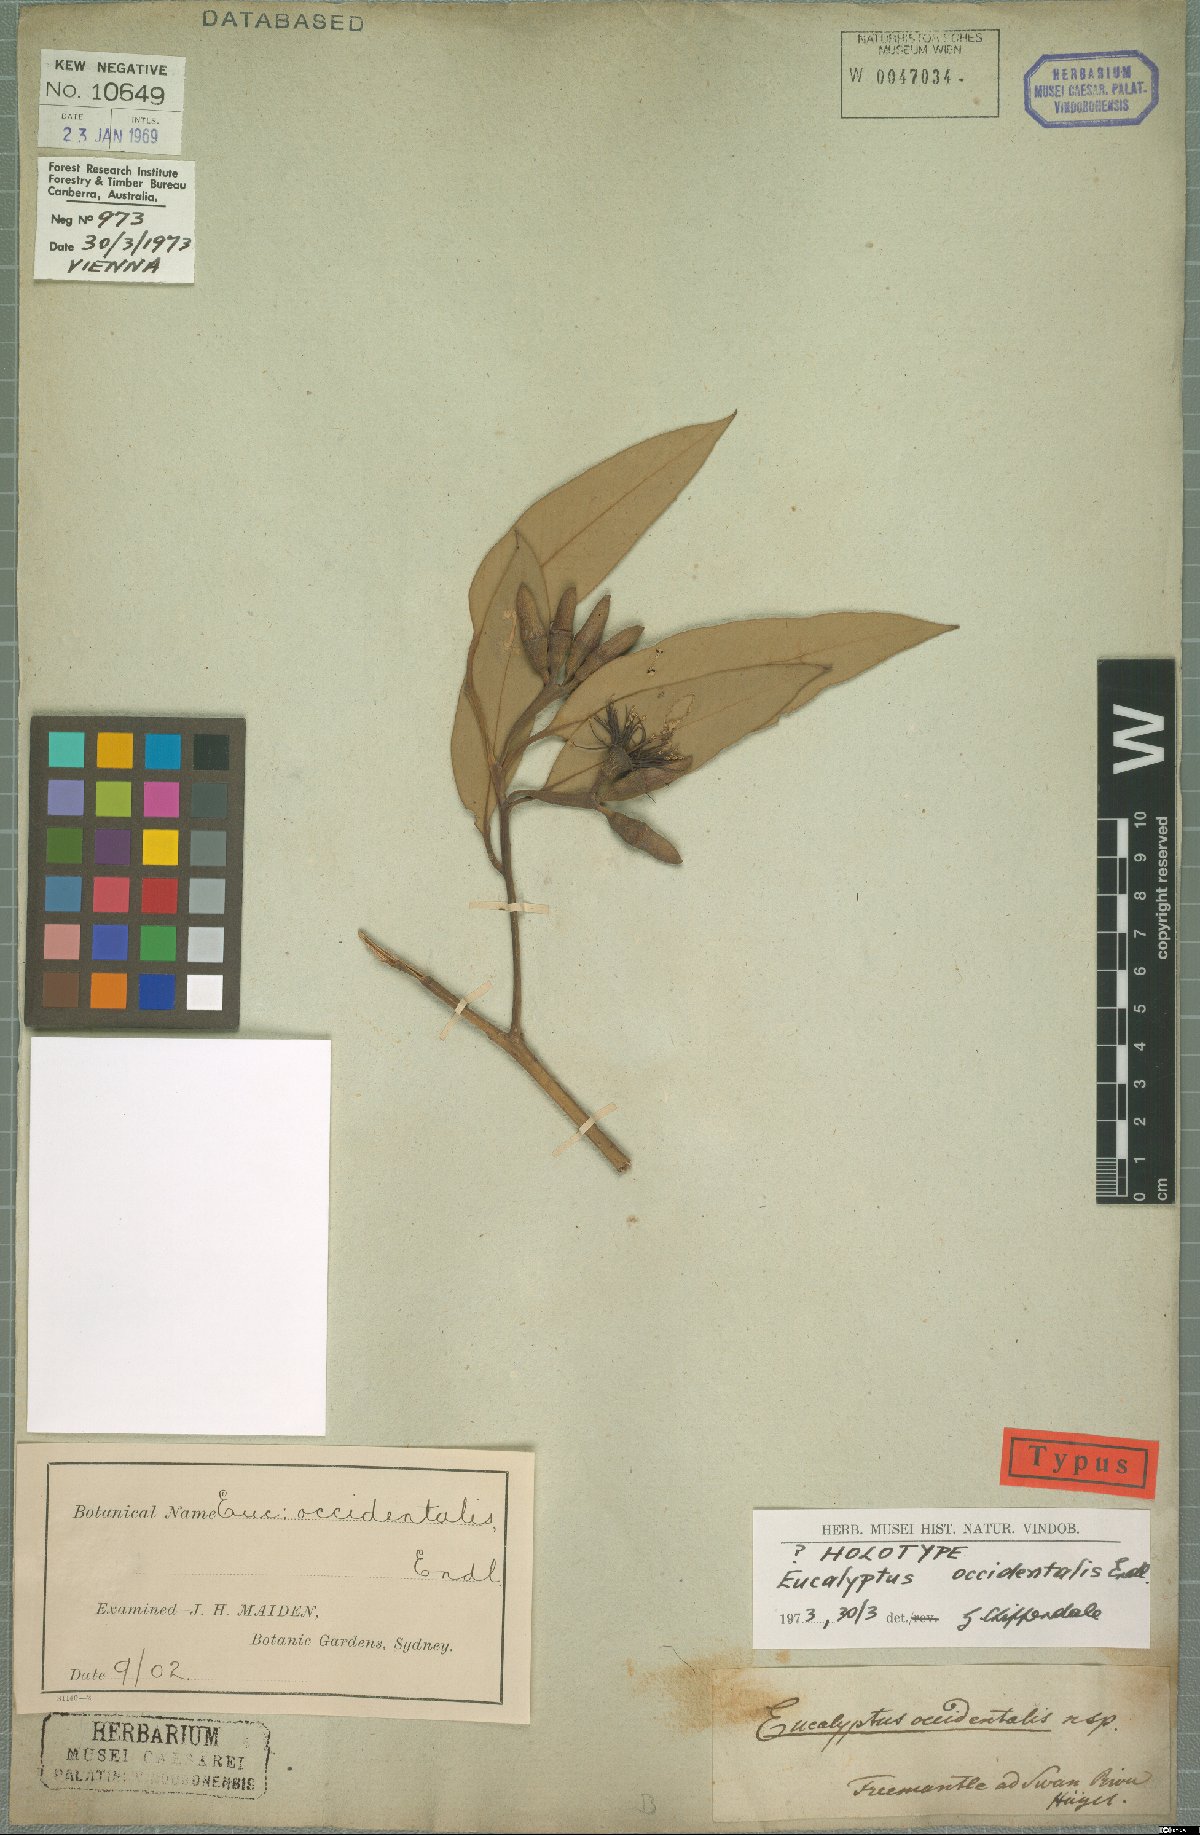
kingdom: Plantae
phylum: Tracheophyta
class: Magnoliopsida
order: Myrtales
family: Myrtaceae
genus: Eucalyptus
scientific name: Eucalyptus occidentalis
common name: Swamp yate
